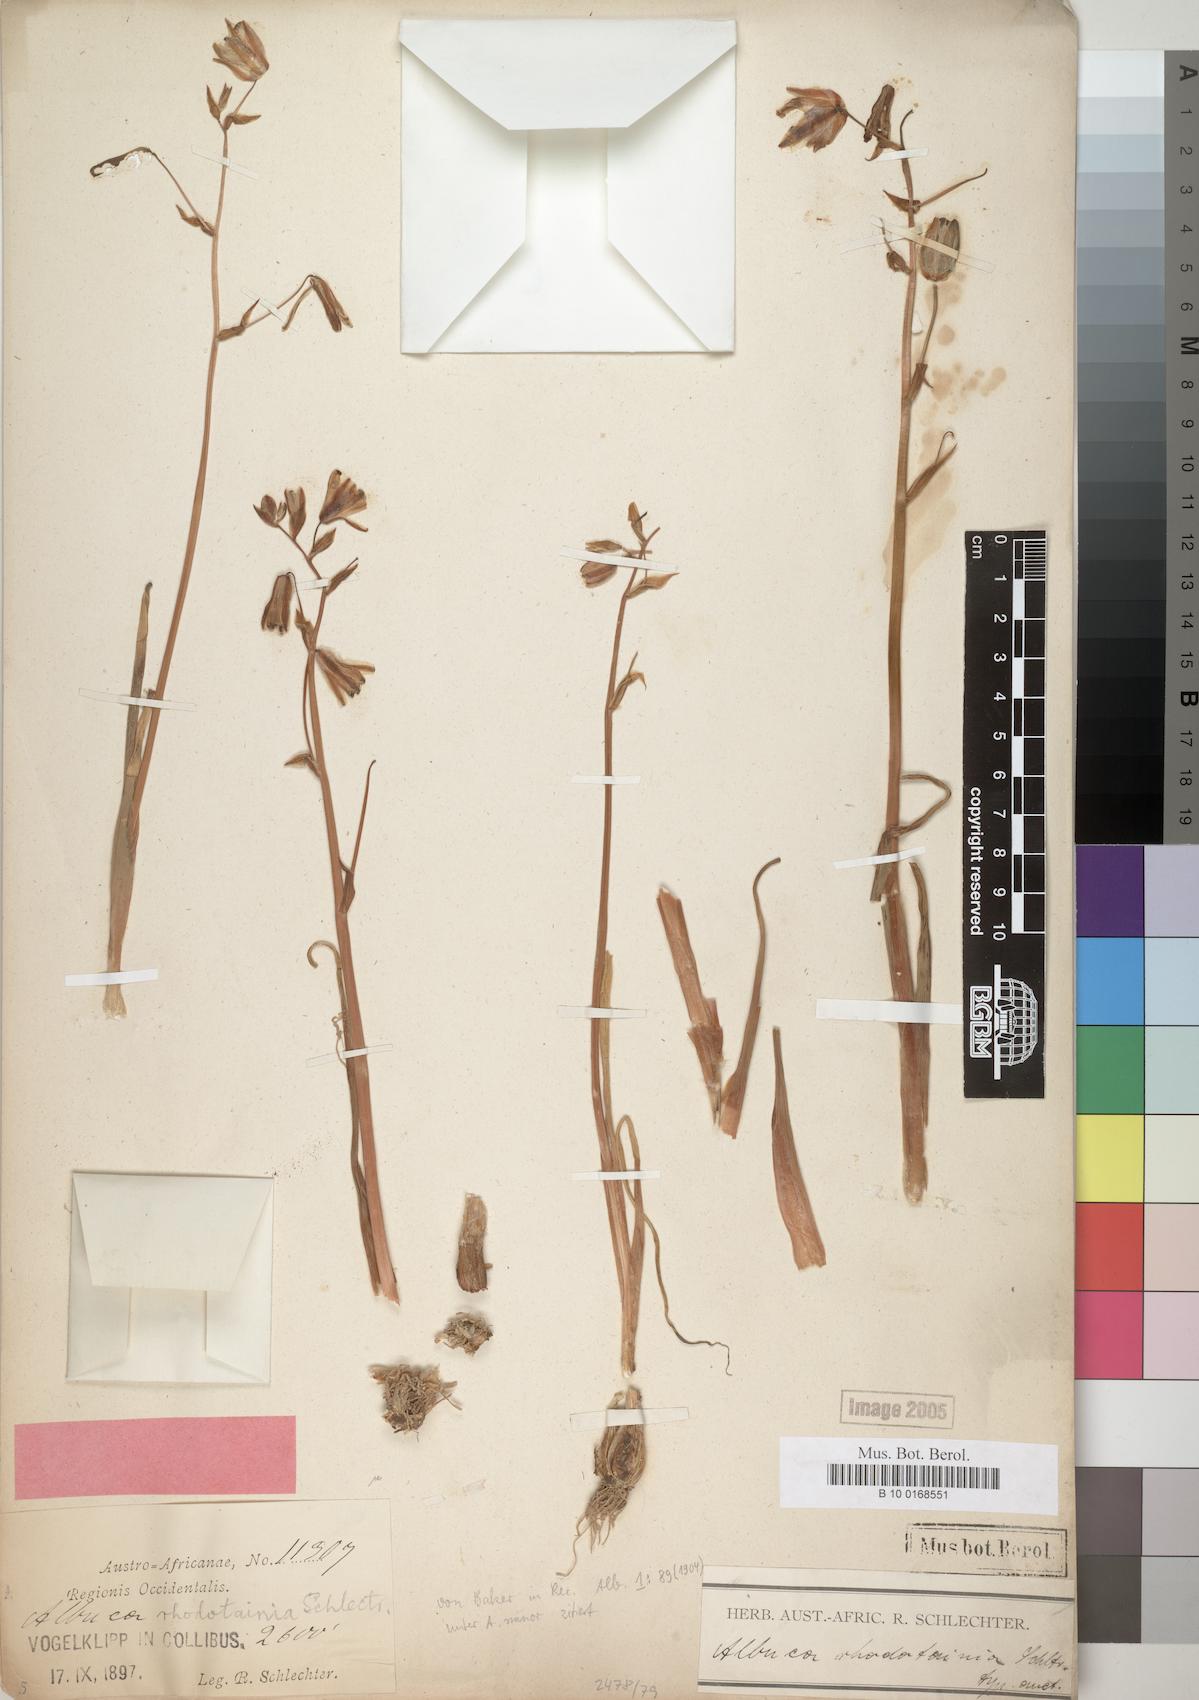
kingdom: Plantae
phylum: Tracheophyta
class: Liliopsida
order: Asparagales
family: Asparagaceae
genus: Albuca
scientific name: Albuca
